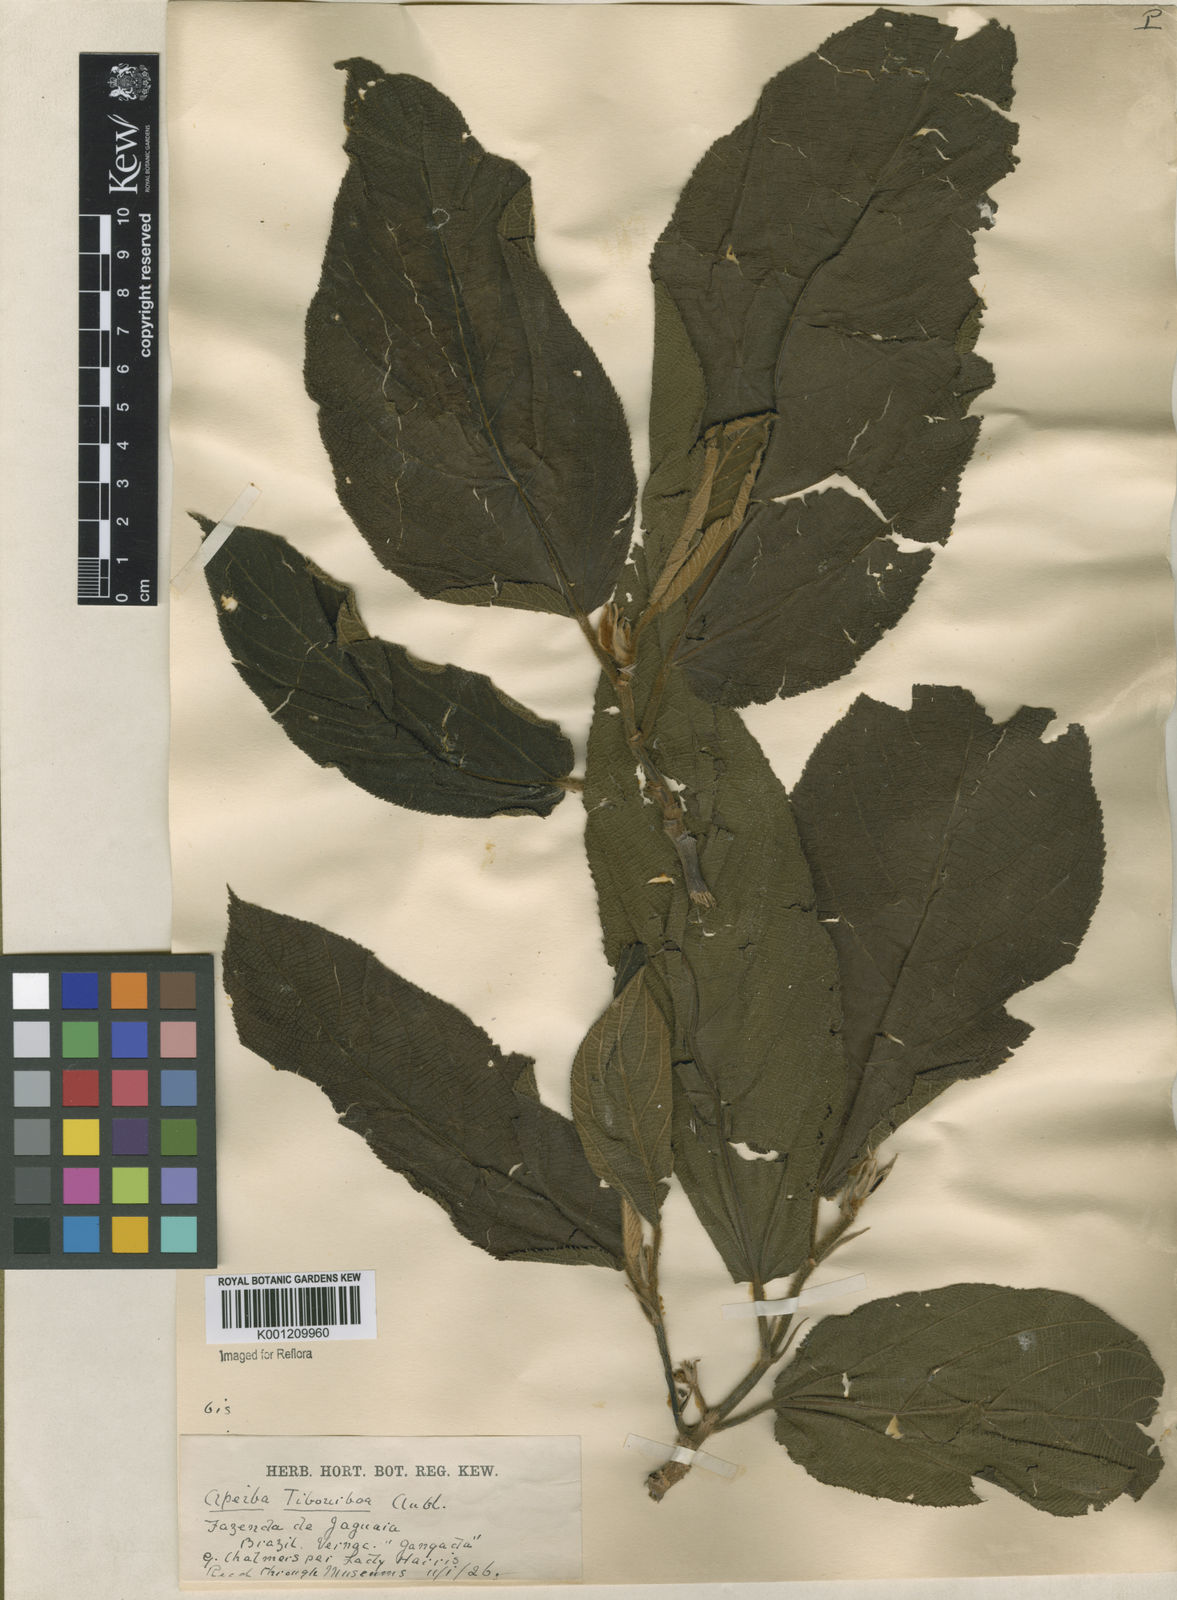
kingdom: Plantae
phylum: Tracheophyta
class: Magnoliopsida
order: Malvales
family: Malvaceae
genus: Apeiba
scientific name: Apeiba tibourbou
